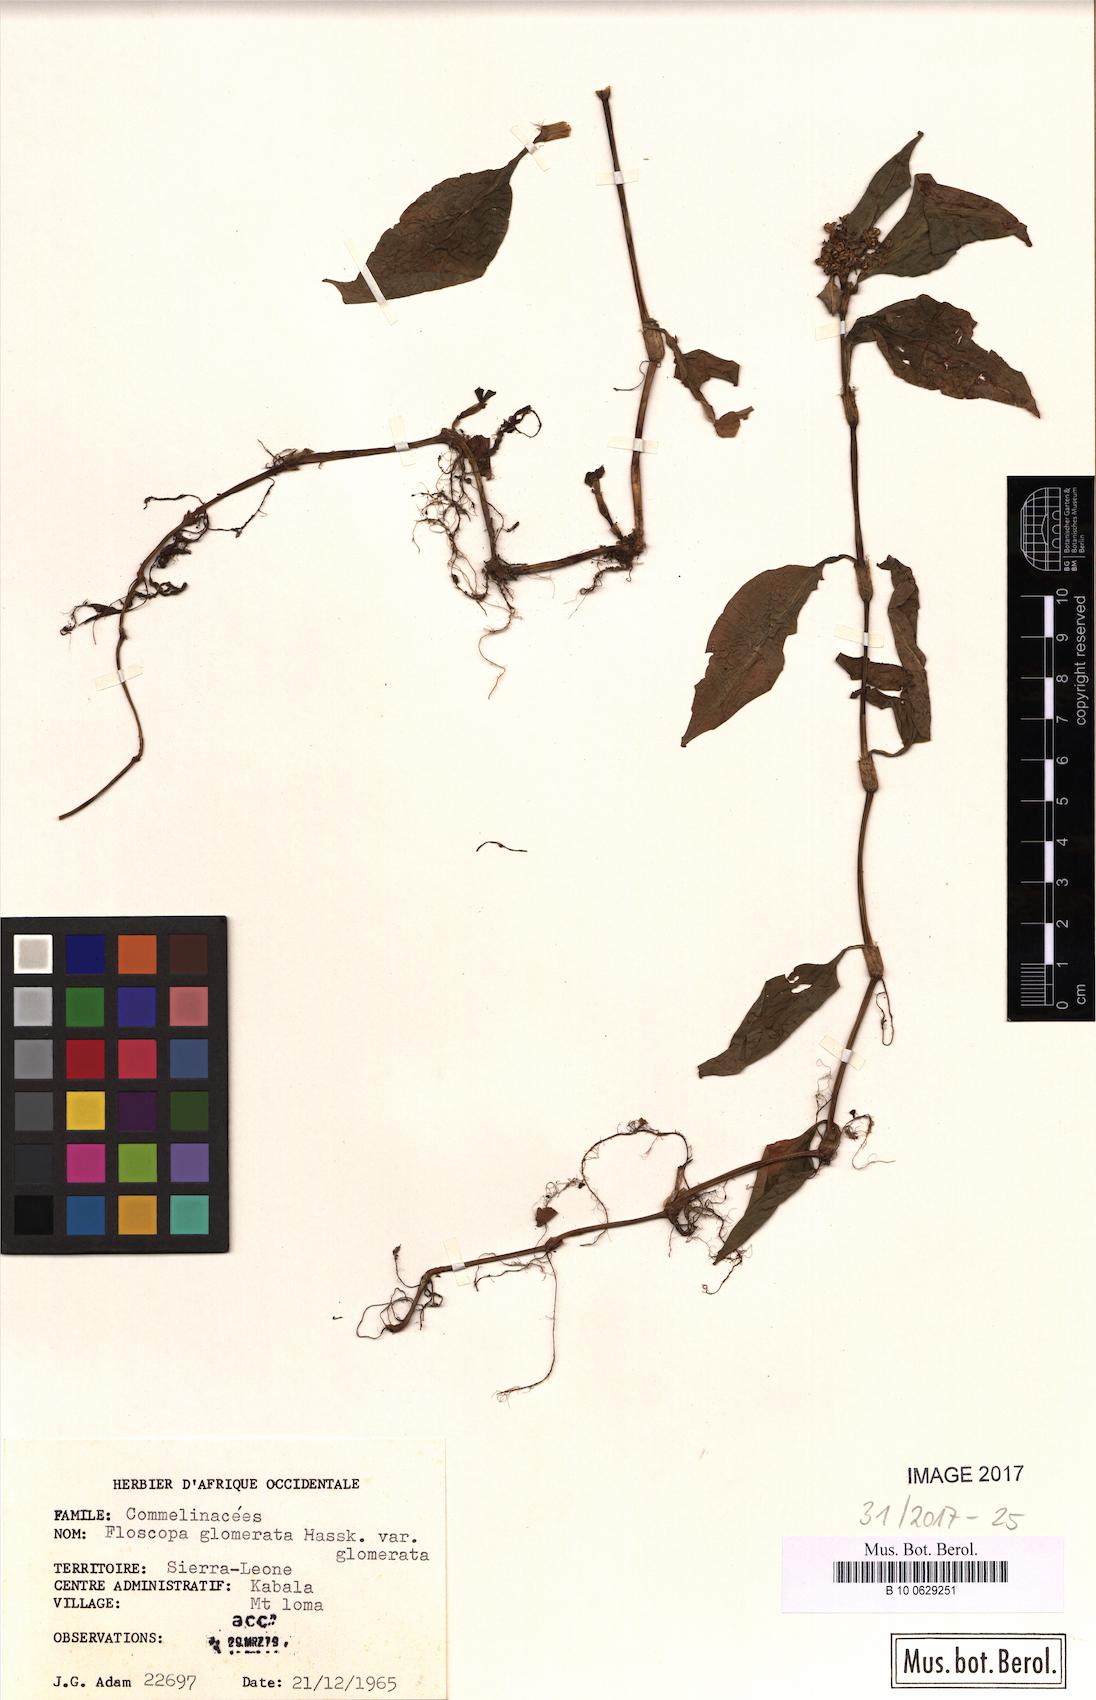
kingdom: Plantae
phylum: Tracheophyta
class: Liliopsida
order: Commelinales
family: Commelinaceae
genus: Floscopa
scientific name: Floscopa glomerata
